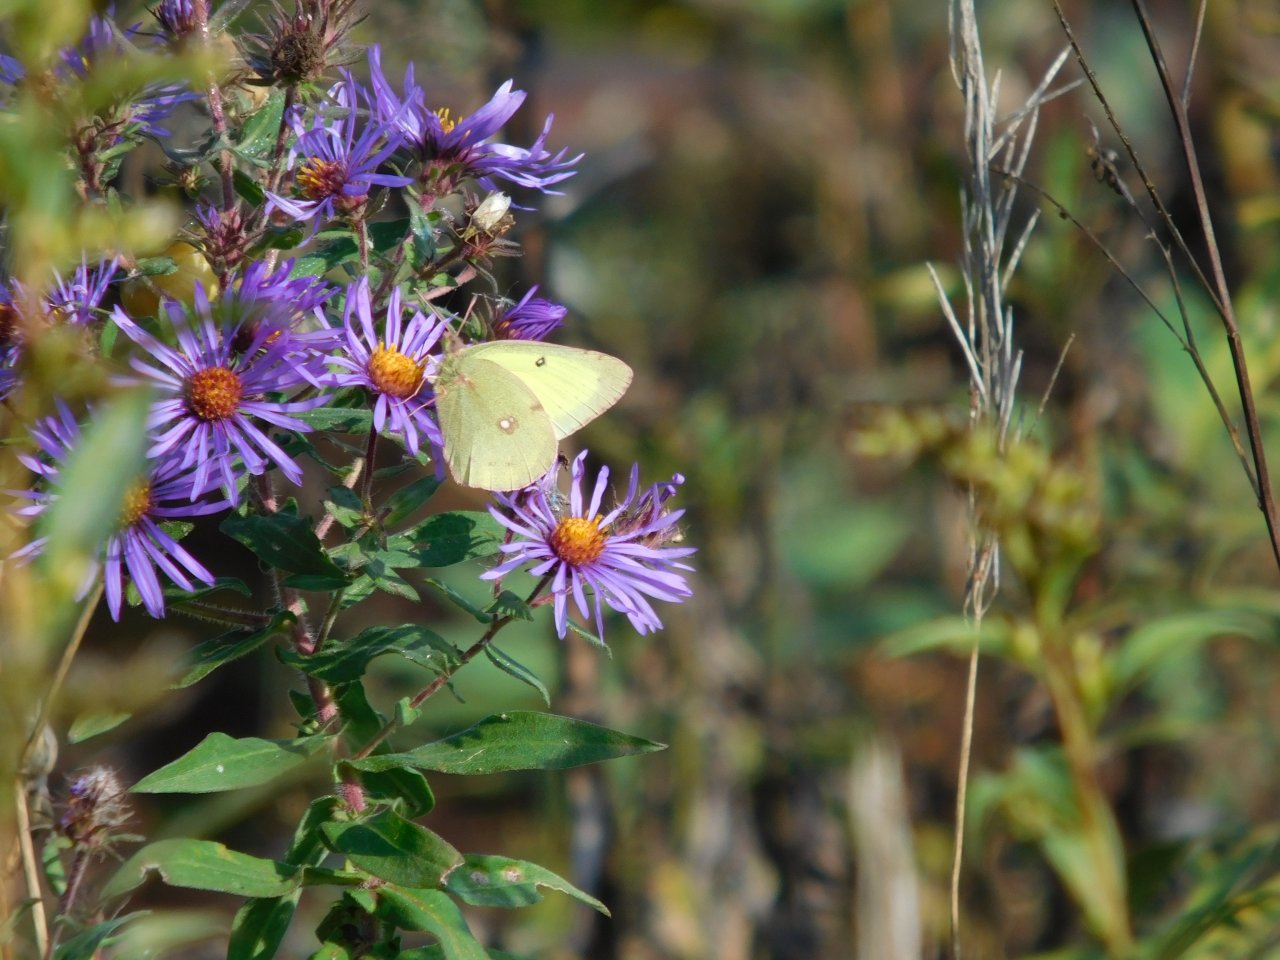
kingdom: Animalia
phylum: Arthropoda
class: Insecta
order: Lepidoptera
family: Pieridae
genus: Colias
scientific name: Colias philodice
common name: Clouded Sulphur
